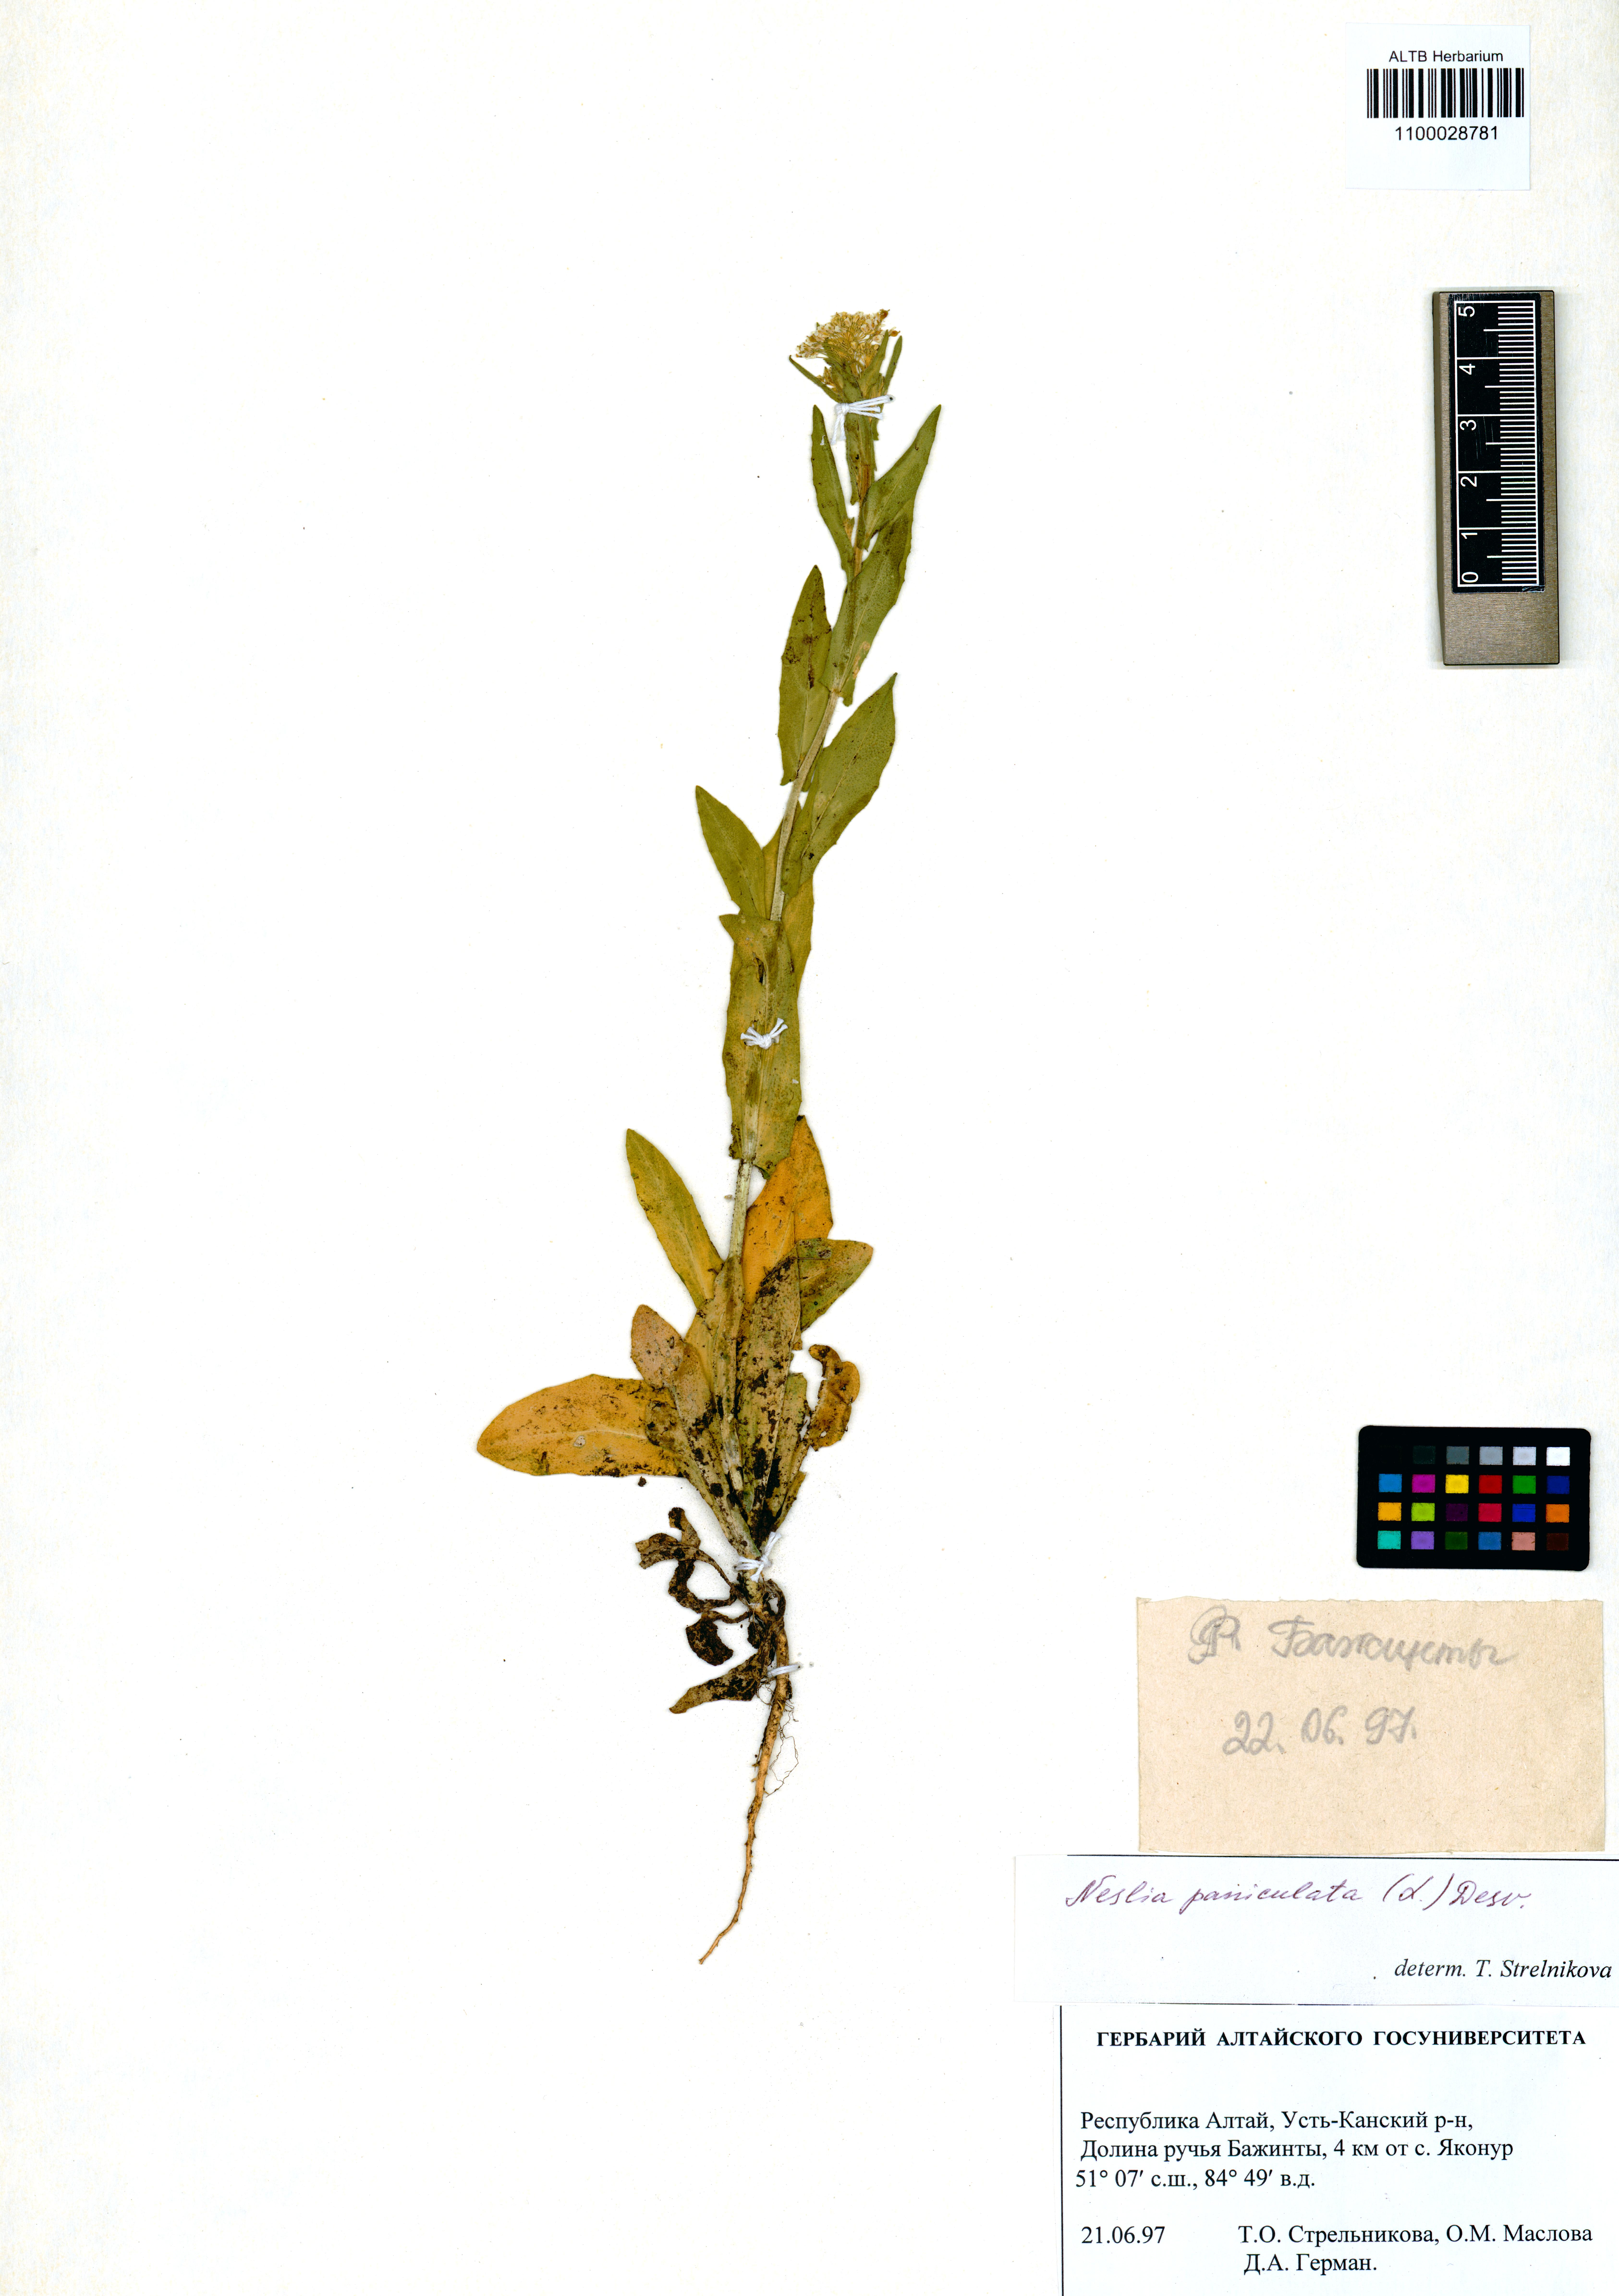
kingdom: Plantae
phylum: Tracheophyta
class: Magnoliopsida
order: Brassicales
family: Brassicaceae
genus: Neslia
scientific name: Neslia paniculata
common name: Ball mustard
